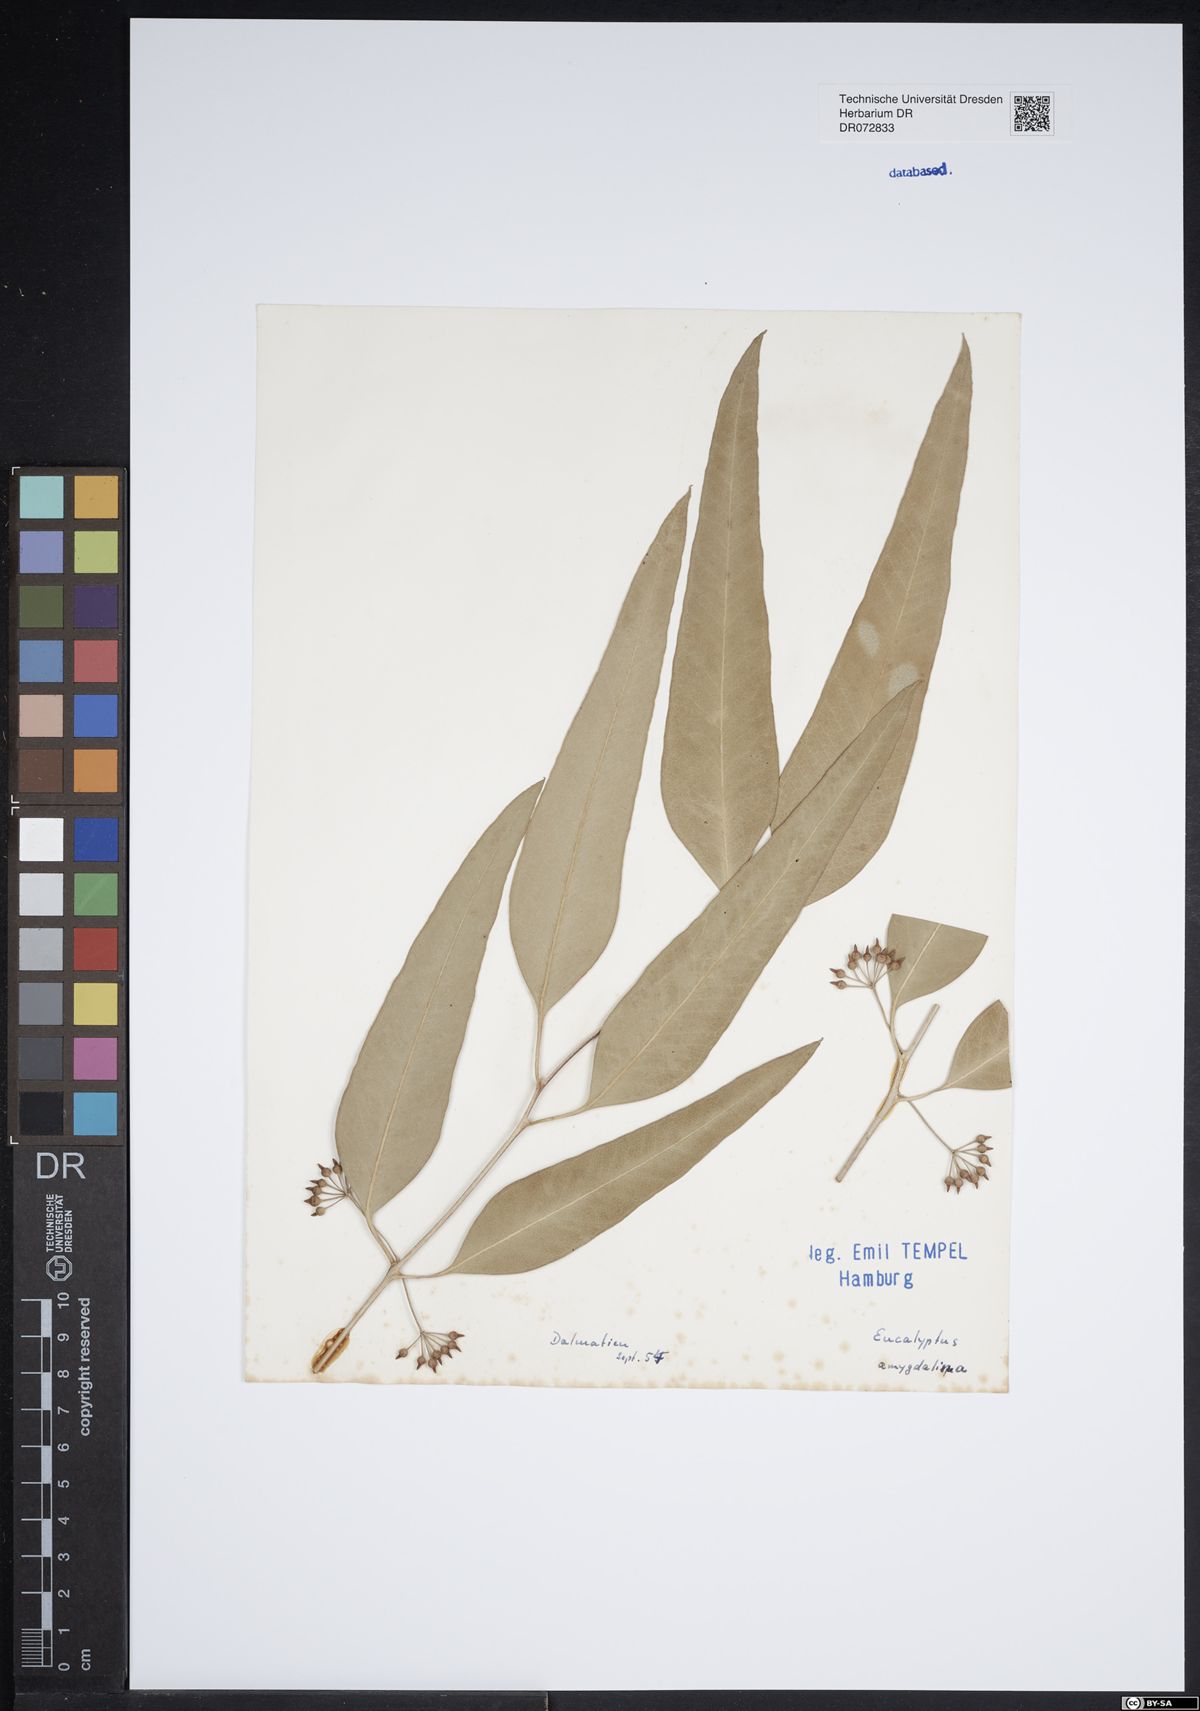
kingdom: Plantae
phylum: Tracheophyta
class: Magnoliopsida
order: Myrtales
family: Myrtaceae
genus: Eucalyptus
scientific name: Eucalyptus amygdalina
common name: Black peppermint
